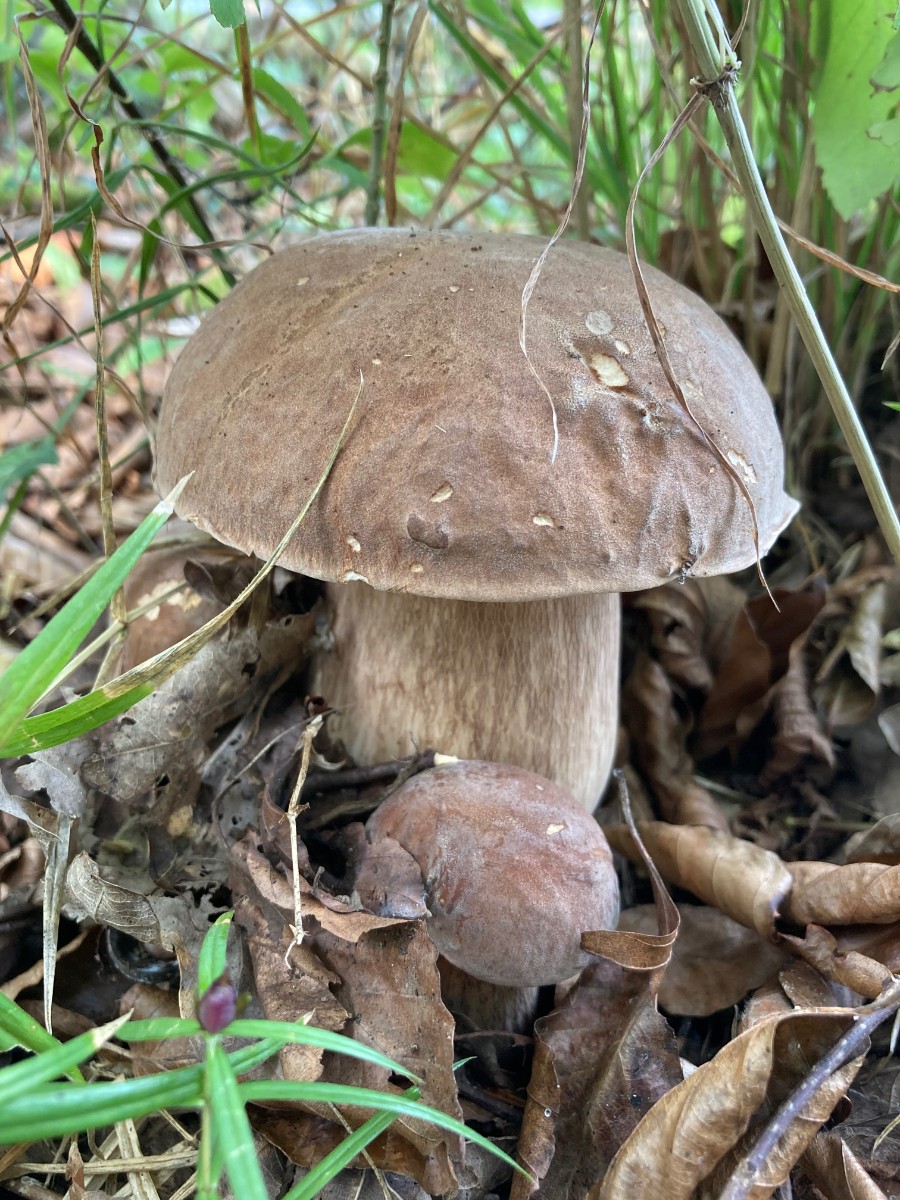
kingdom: Fungi
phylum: Basidiomycota
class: Agaricomycetes
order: Boletales
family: Boletaceae
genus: Boletus
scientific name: Boletus reticulatus
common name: sommer-rørhat
